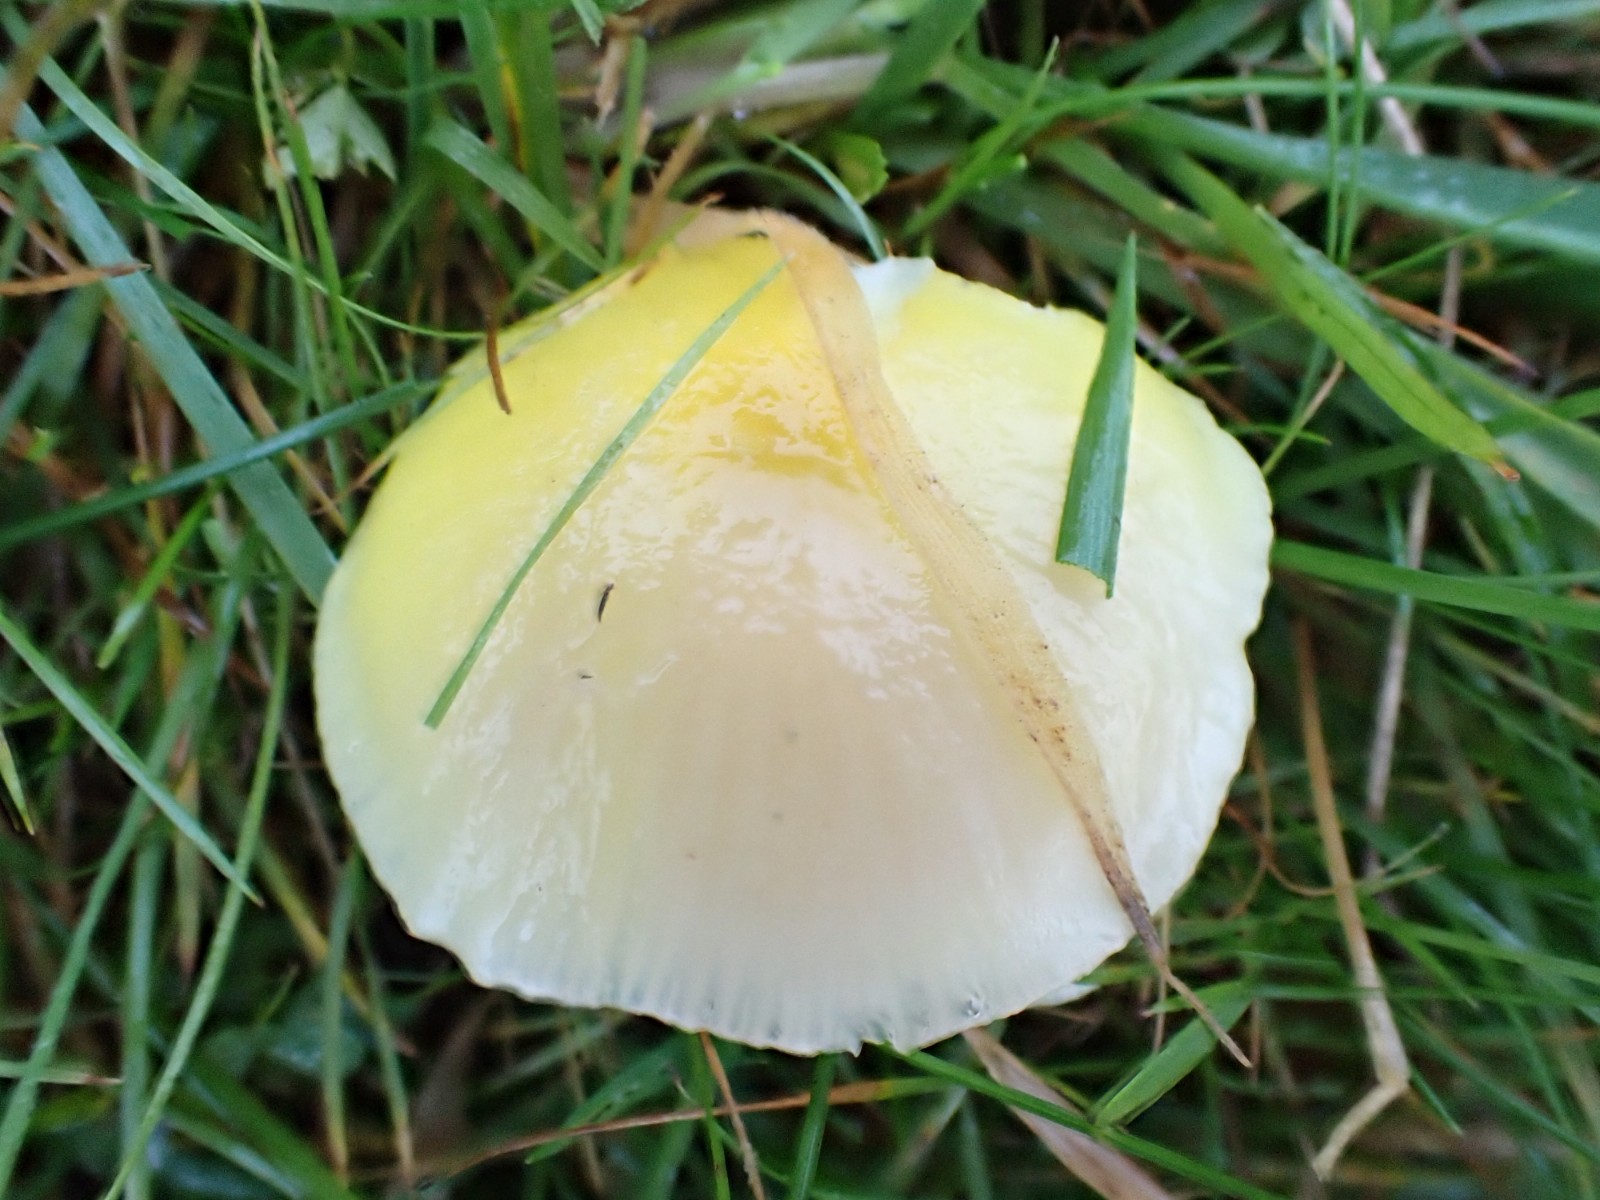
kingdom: Fungi
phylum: Basidiomycota
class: Agaricomycetes
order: Agaricales
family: Hygrophoraceae
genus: Hygrocybe
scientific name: Hygrocybe chlorophana
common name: gul vokshat
